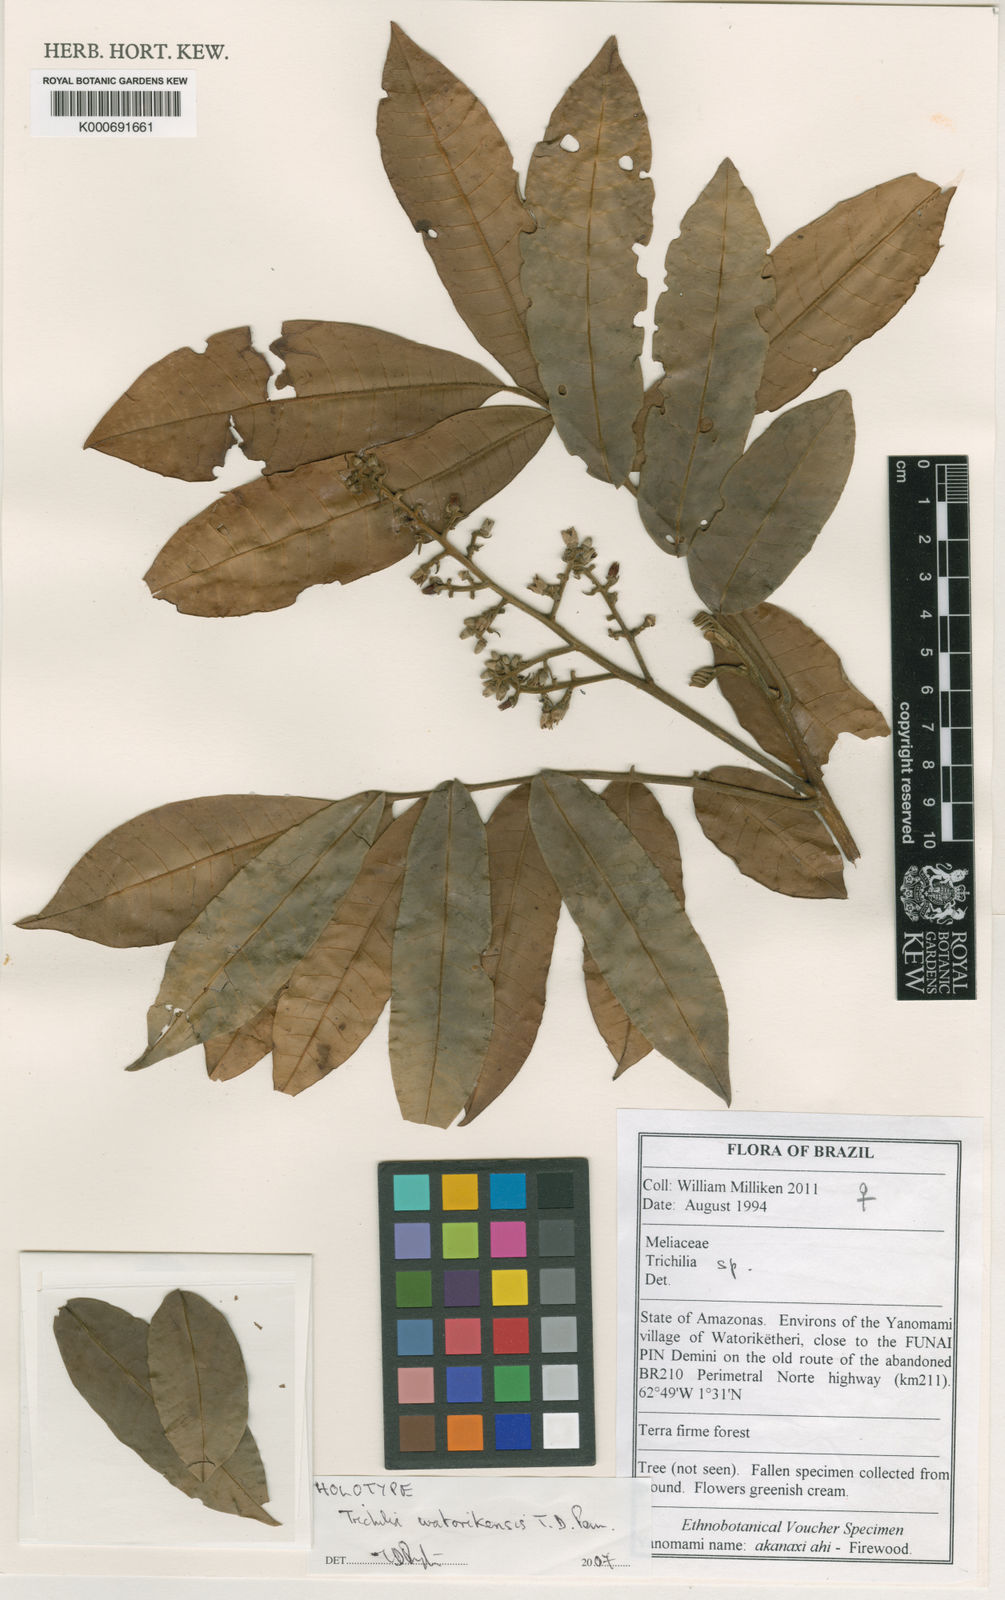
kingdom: Plantae
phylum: Tracheophyta
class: Magnoliopsida
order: Sapindales
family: Meliaceae
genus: Trichilia
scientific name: Trichilia
